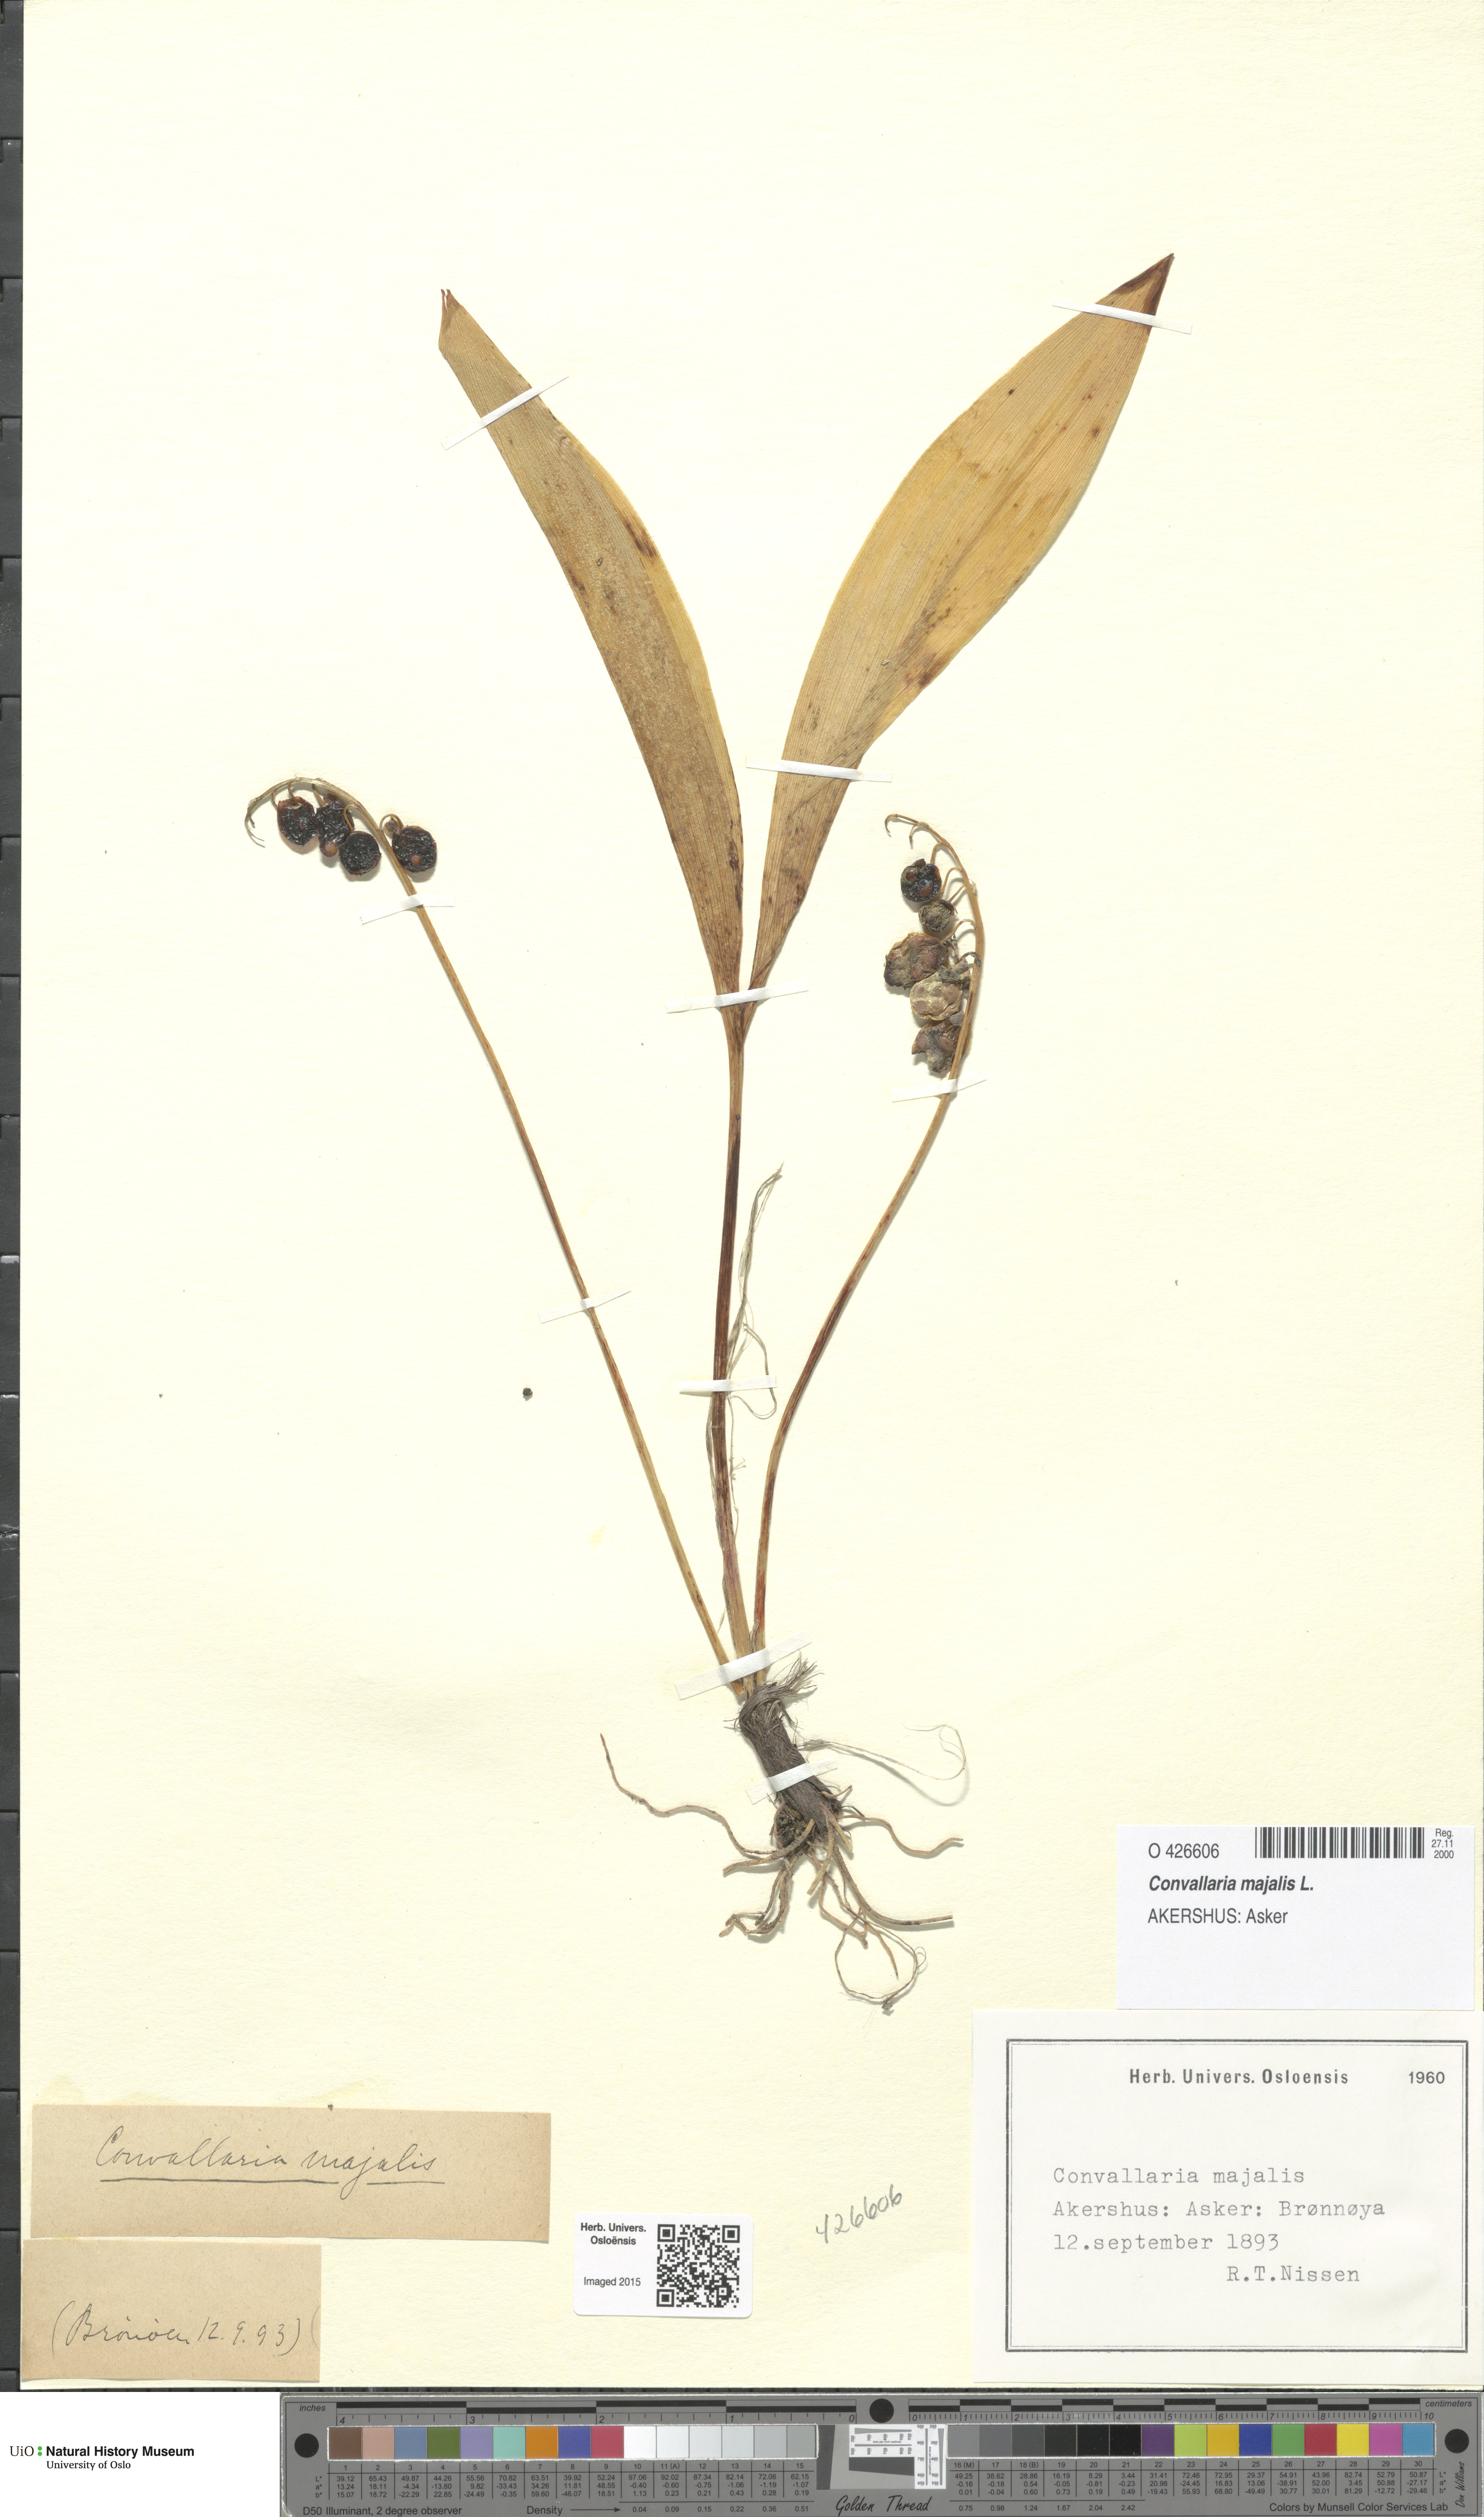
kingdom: Plantae
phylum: Tracheophyta
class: Liliopsida
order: Asparagales
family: Asparagaceae
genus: Convallaria
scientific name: Convallaria majalis
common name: Lily-of-the-valley
